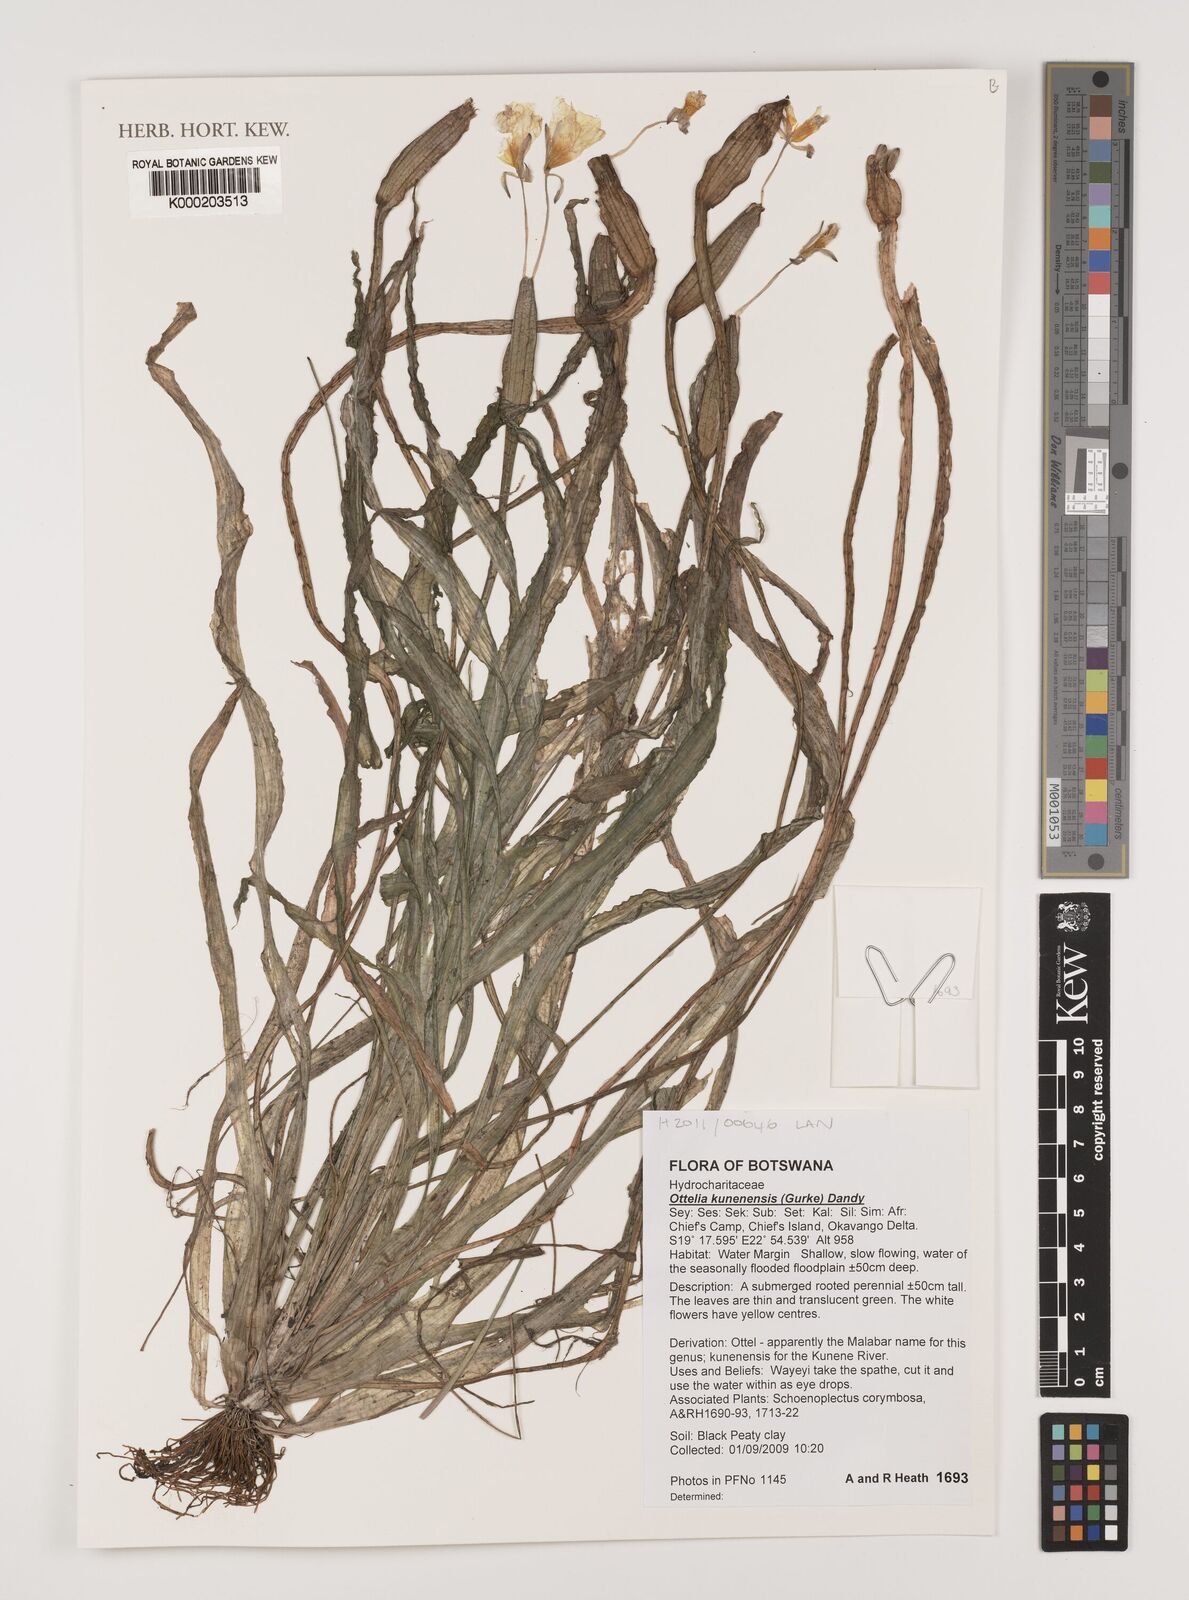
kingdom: Plantae
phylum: Tracheophyta
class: Liliopsida
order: Alismatales
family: Hydrocharitaceae
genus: Ottelia
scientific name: Ottelia kunenensis
